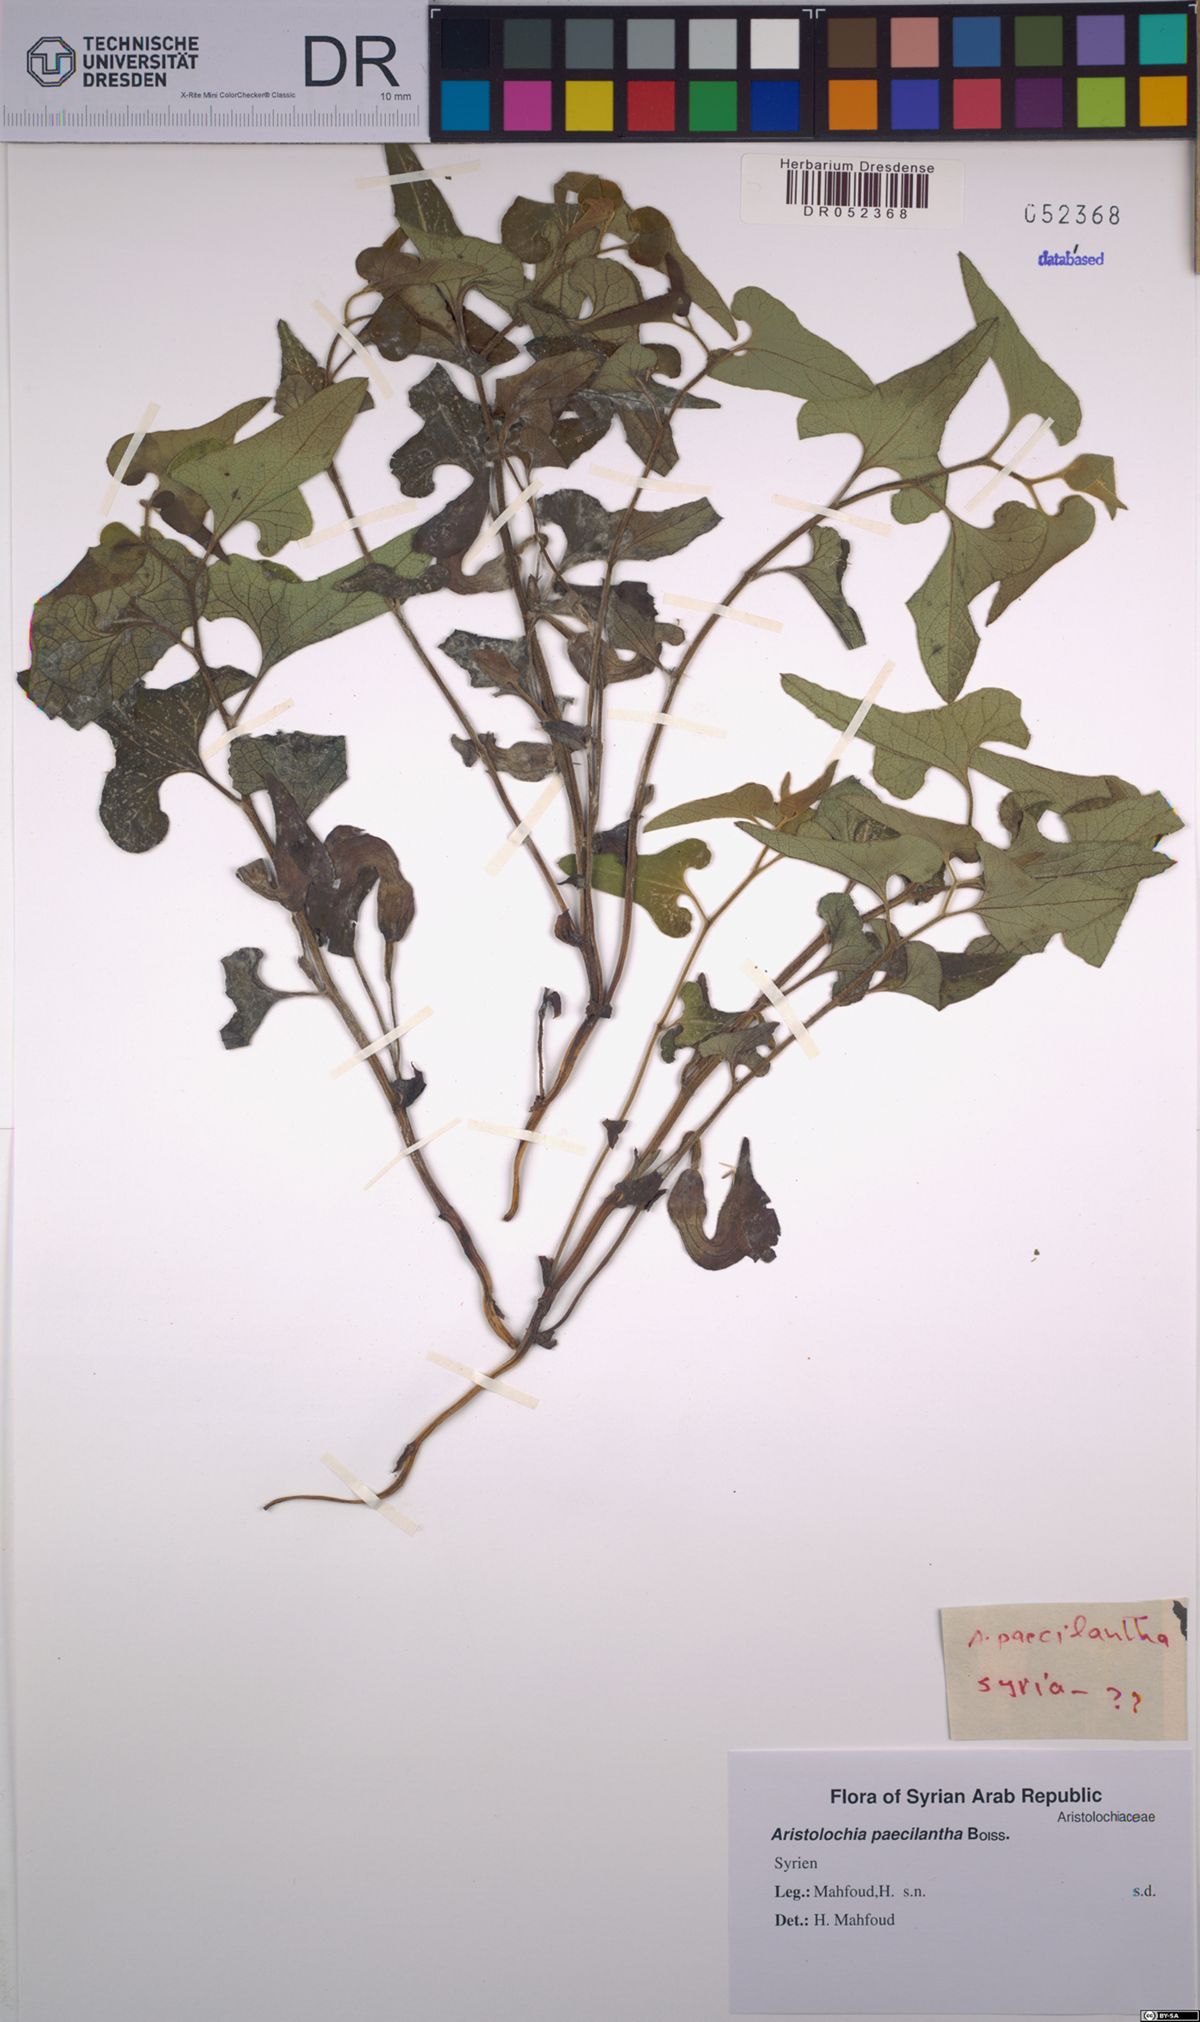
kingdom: Plantae
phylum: Tracheophyta
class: Magnoliopsida
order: Piperales
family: Aristolochiaceae
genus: Aristolochia
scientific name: Aristolochia paecilantha
